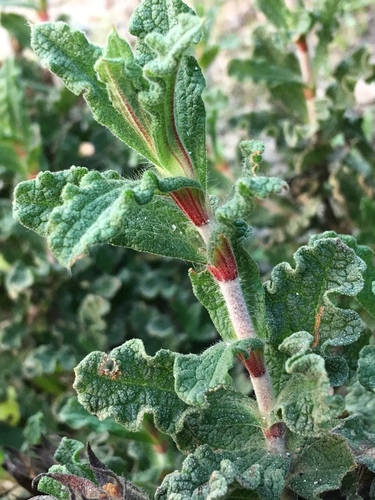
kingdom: Plantae
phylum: Tracheophyta
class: Magnoliopsida
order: Malvales
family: Cistaceae
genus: Cistus
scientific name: Cistus crispus
